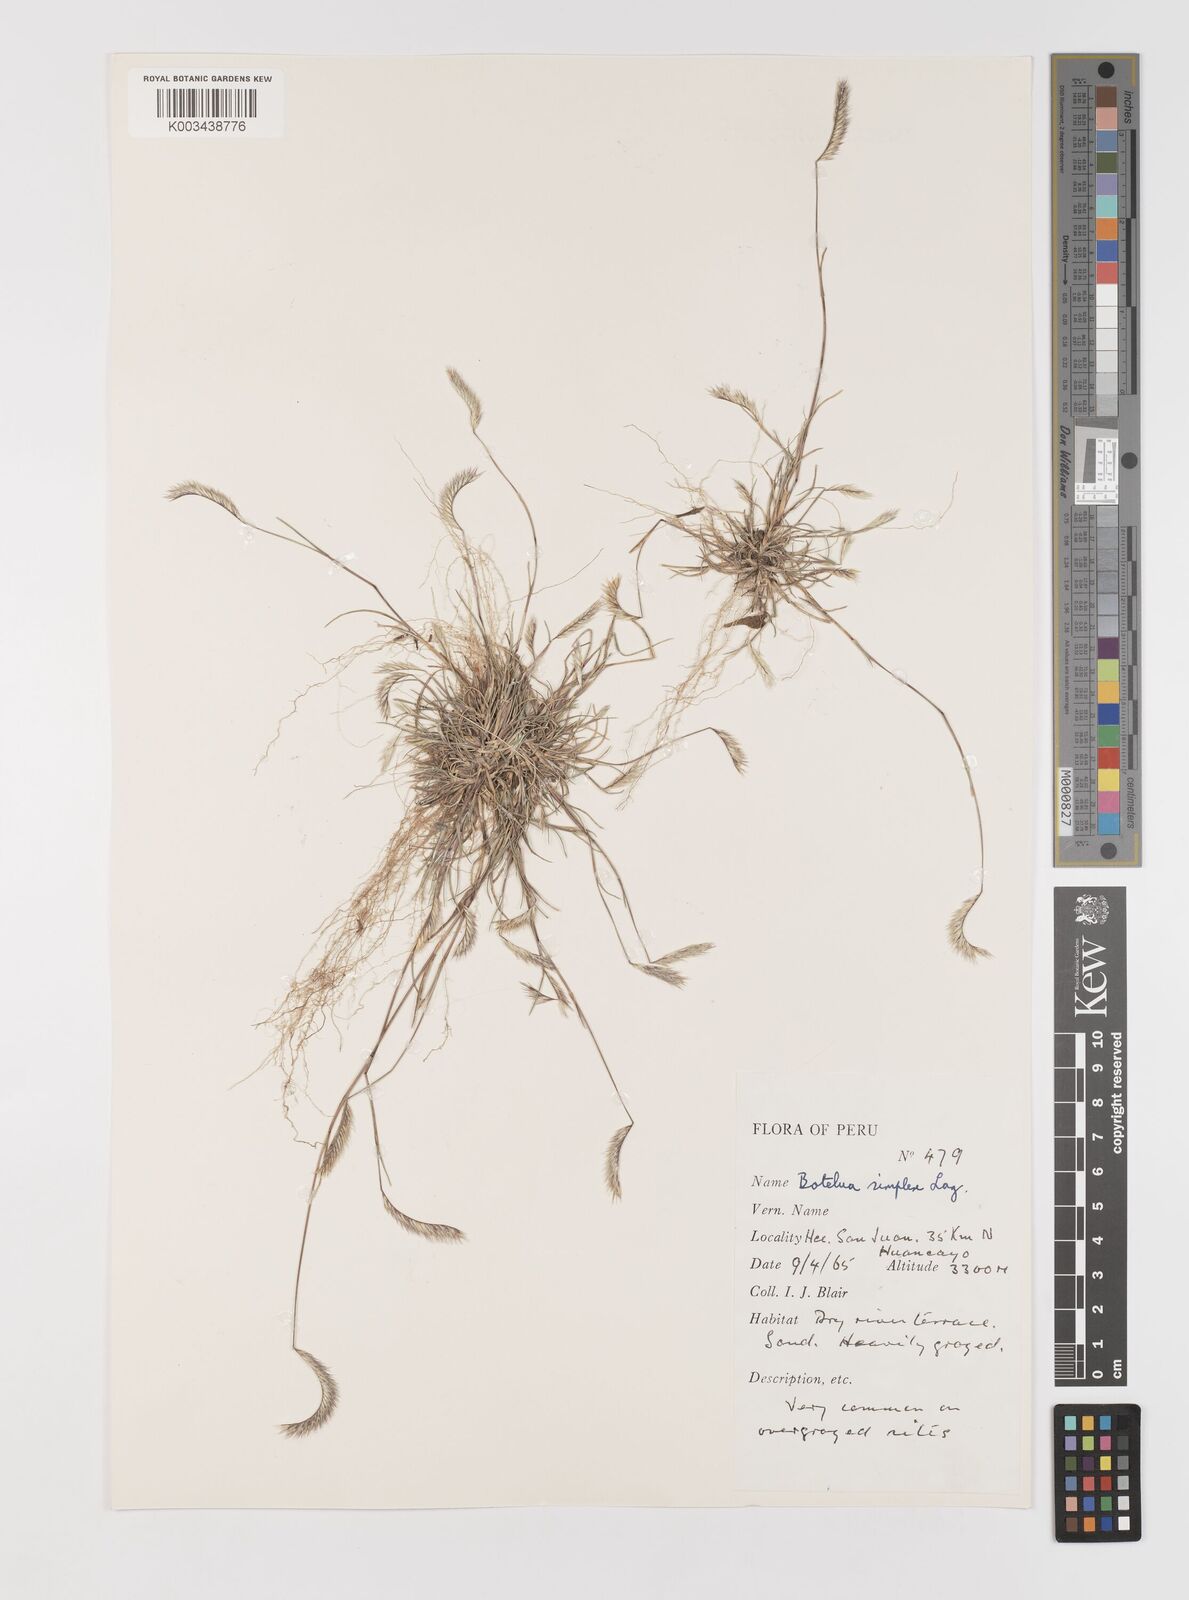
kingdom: Plantae
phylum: Tracheophyta
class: Liliopsida
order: Poales
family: Poaceae
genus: Bouteloua
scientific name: Bouteloua simplex
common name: Mat grama
